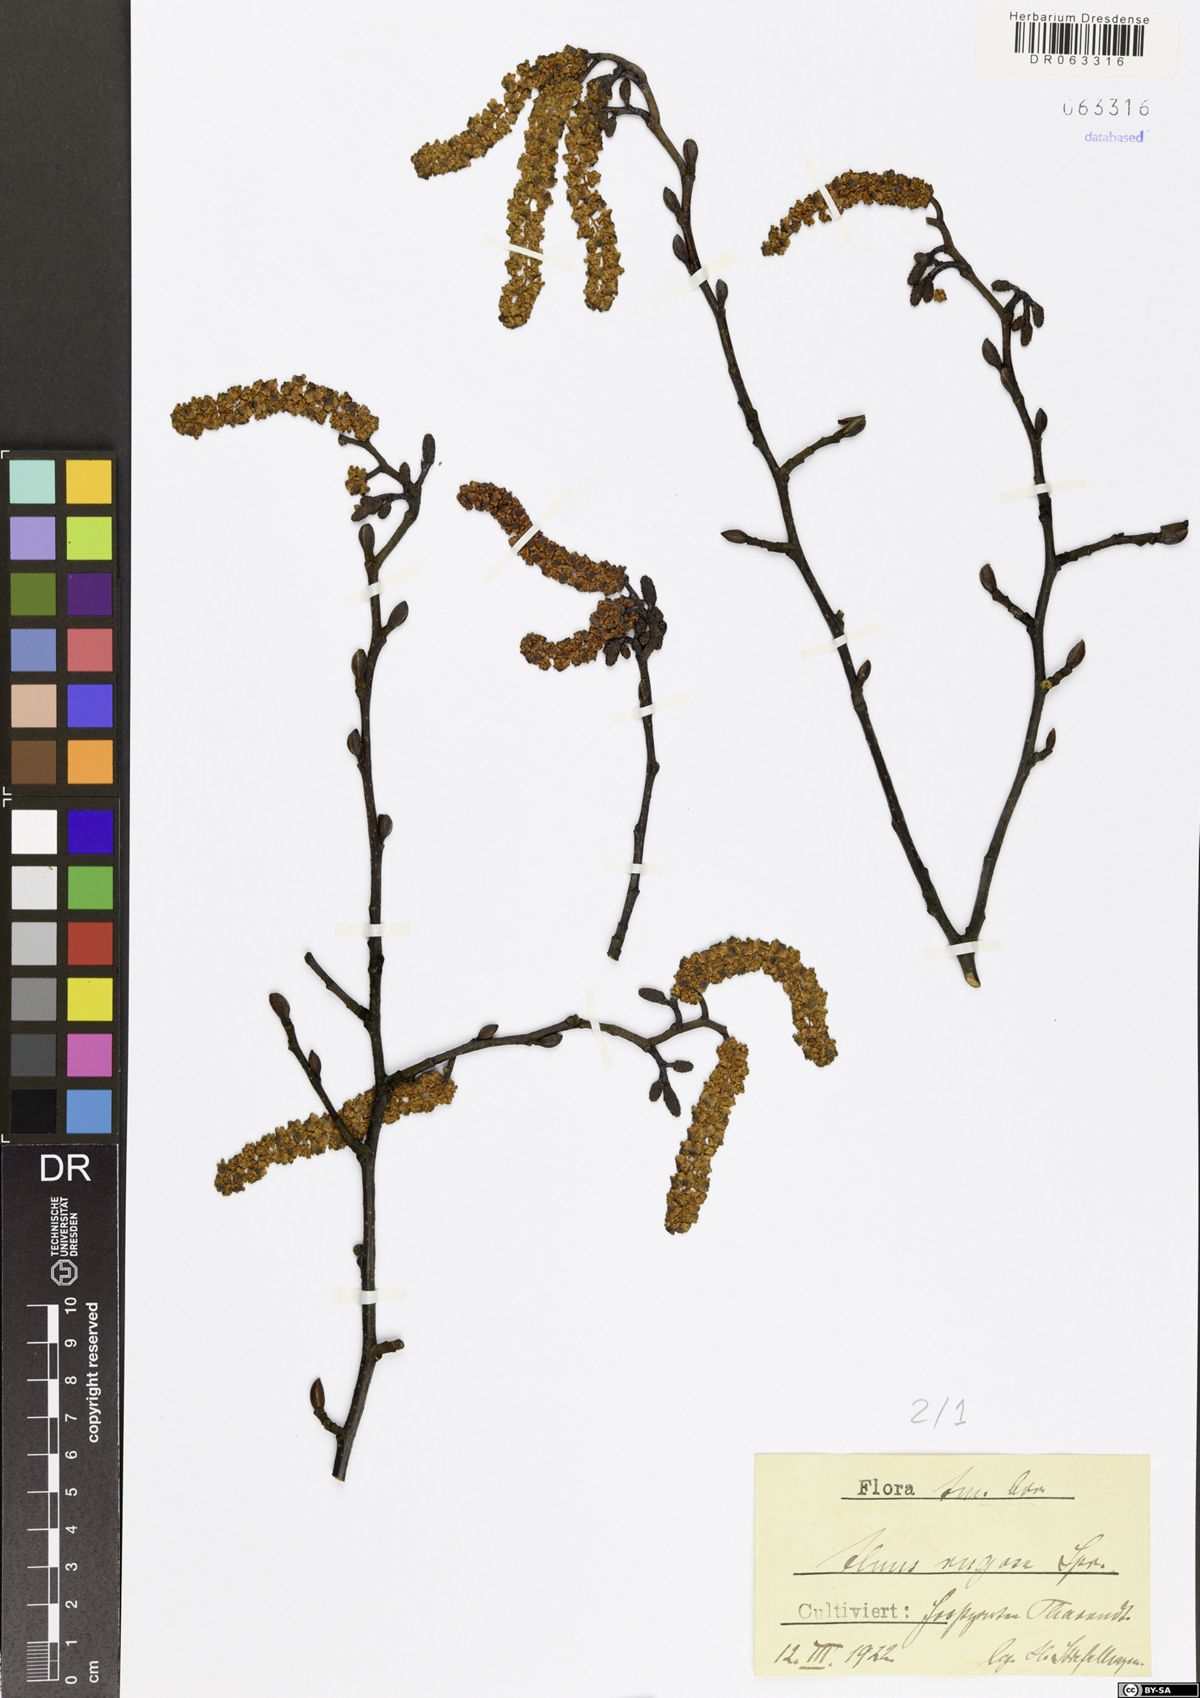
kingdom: Plantae
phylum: Tracheophyta
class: Magnoliopsida
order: Fagales
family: Betulaceae
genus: Alnus
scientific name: Alnus incana
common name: Grey alder
